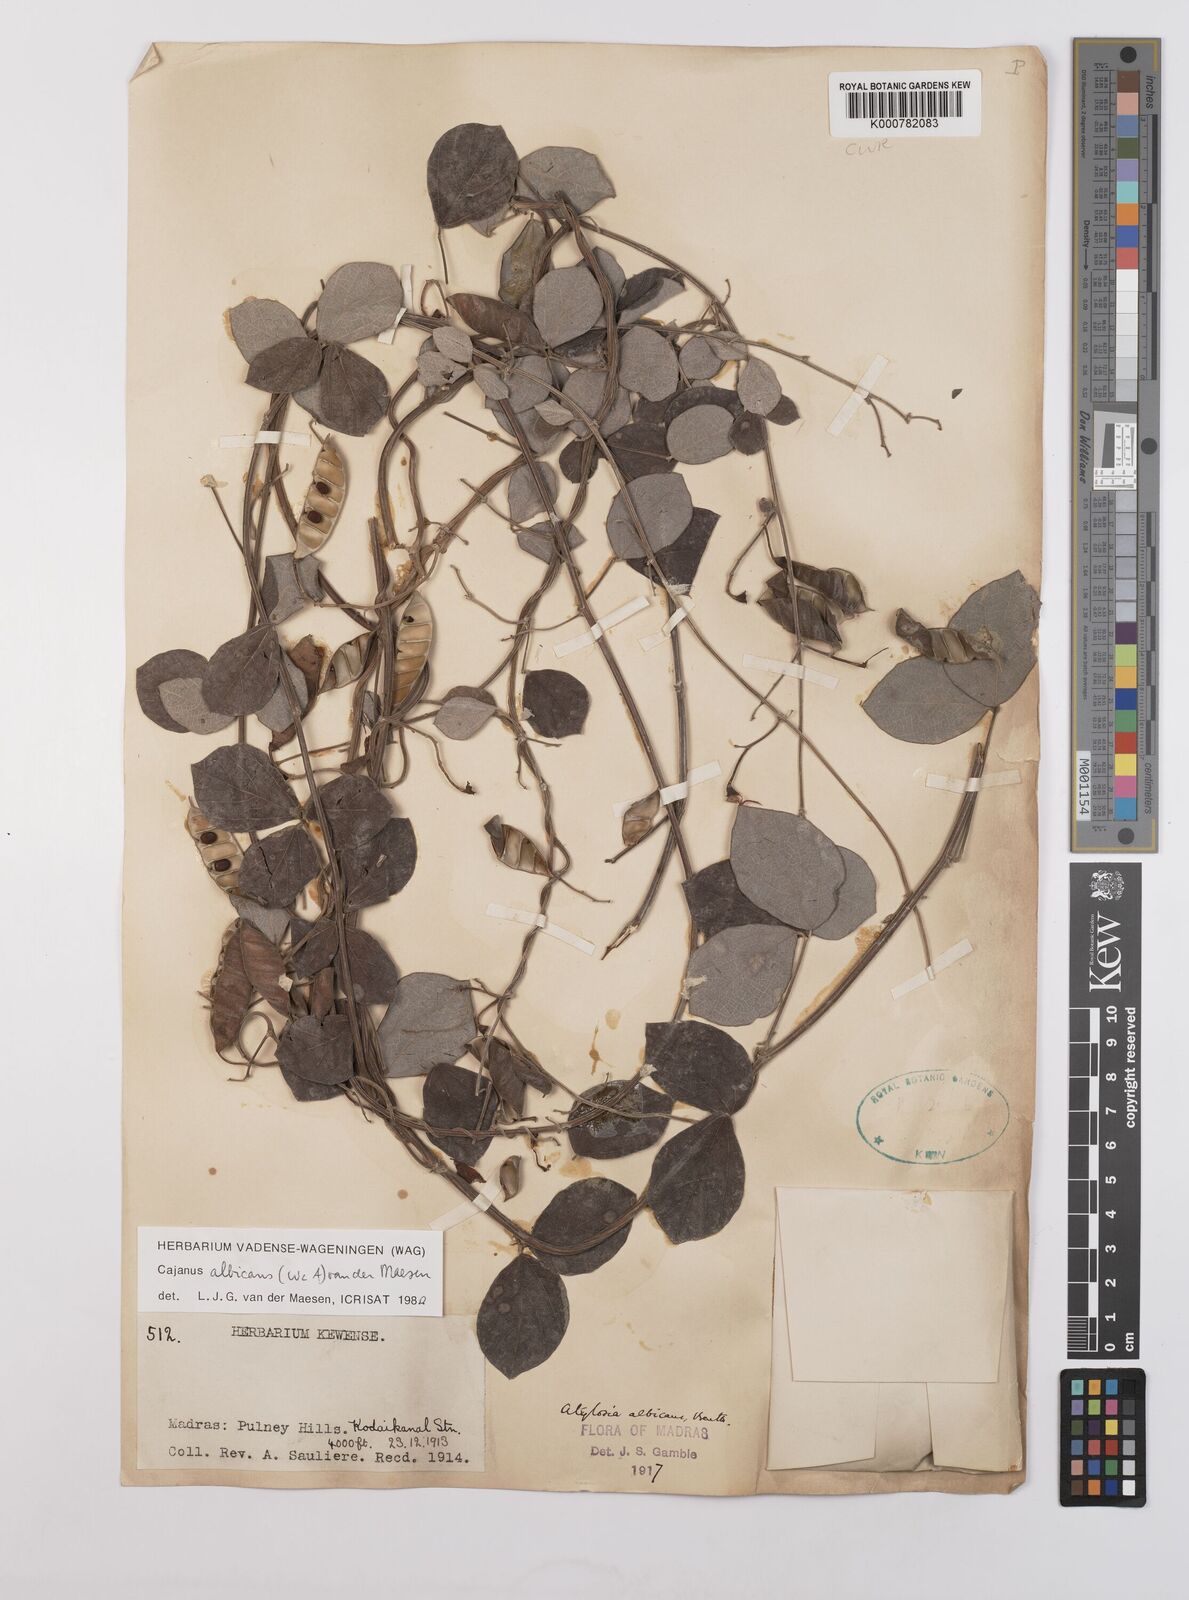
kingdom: Plantae
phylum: Tracheophyta
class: Magnoliopsida
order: Fabales
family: Fabaceae
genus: Cajanus
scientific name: Cajanus albicans
